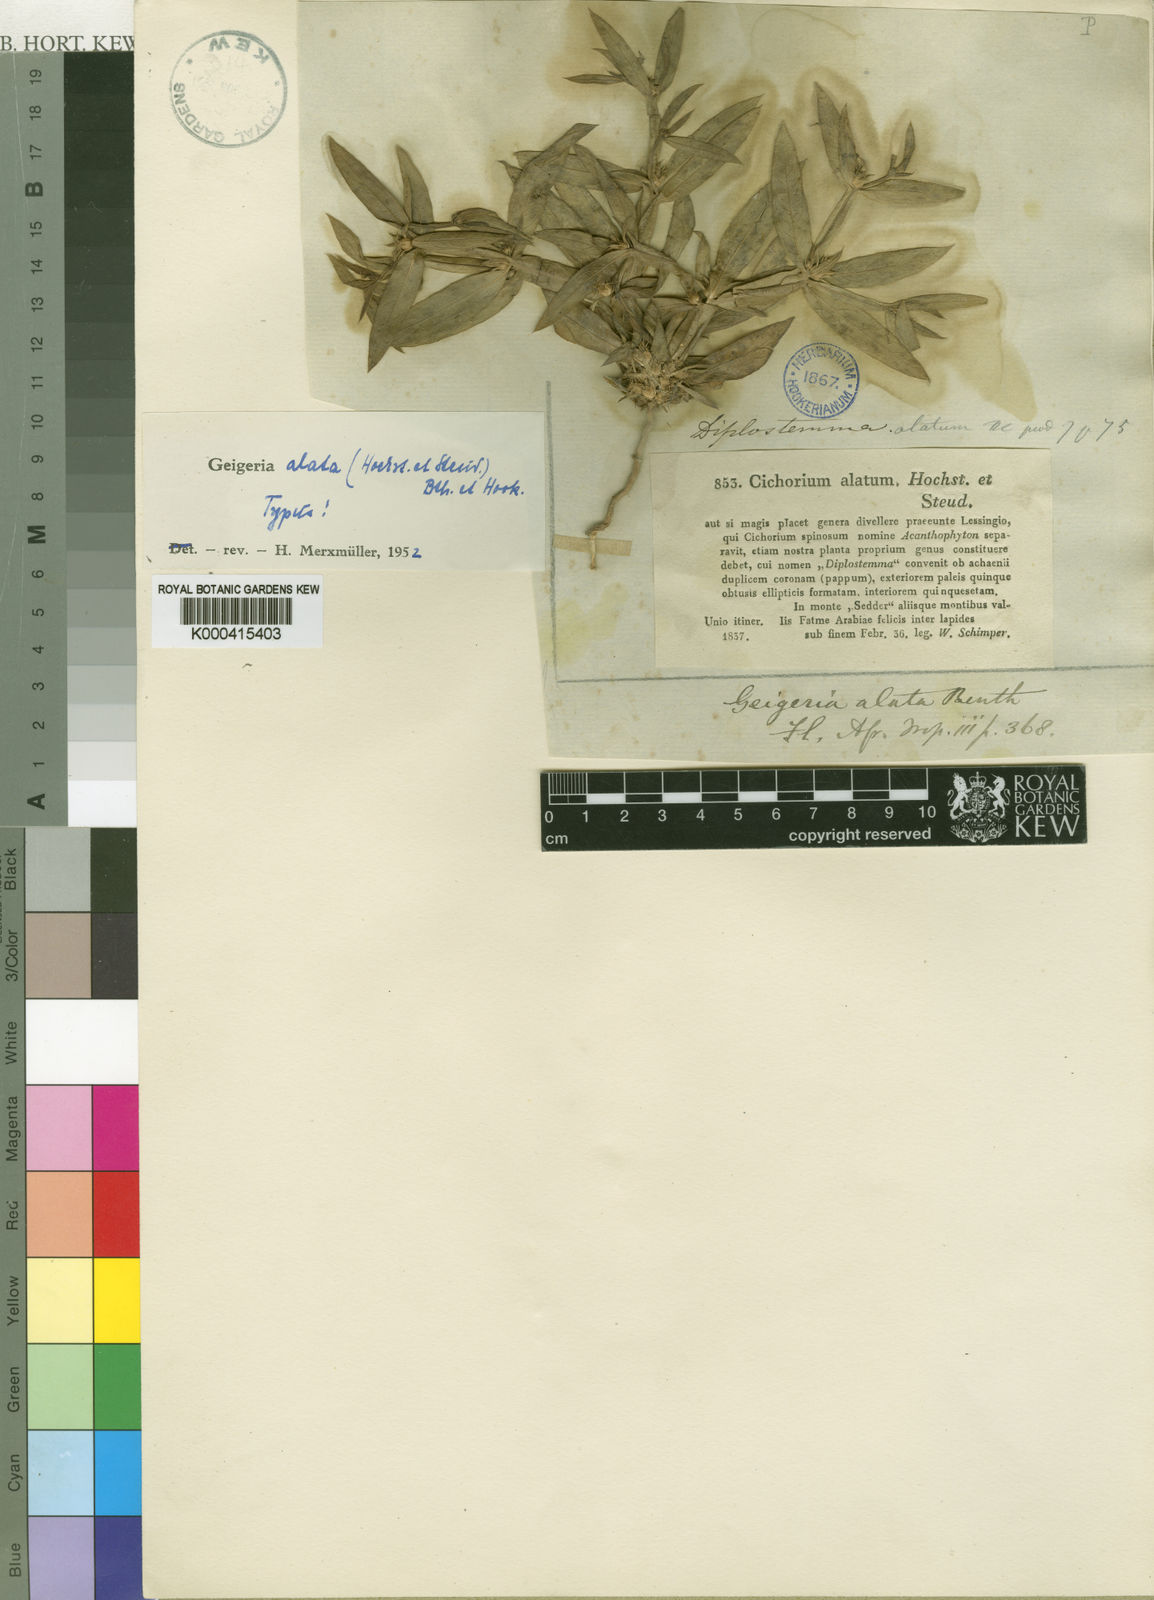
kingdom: Plantae
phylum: Tracheophyta
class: Magnoliopsida
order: Asterales
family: Asteraceae
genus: Geigeria
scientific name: Geigeria
